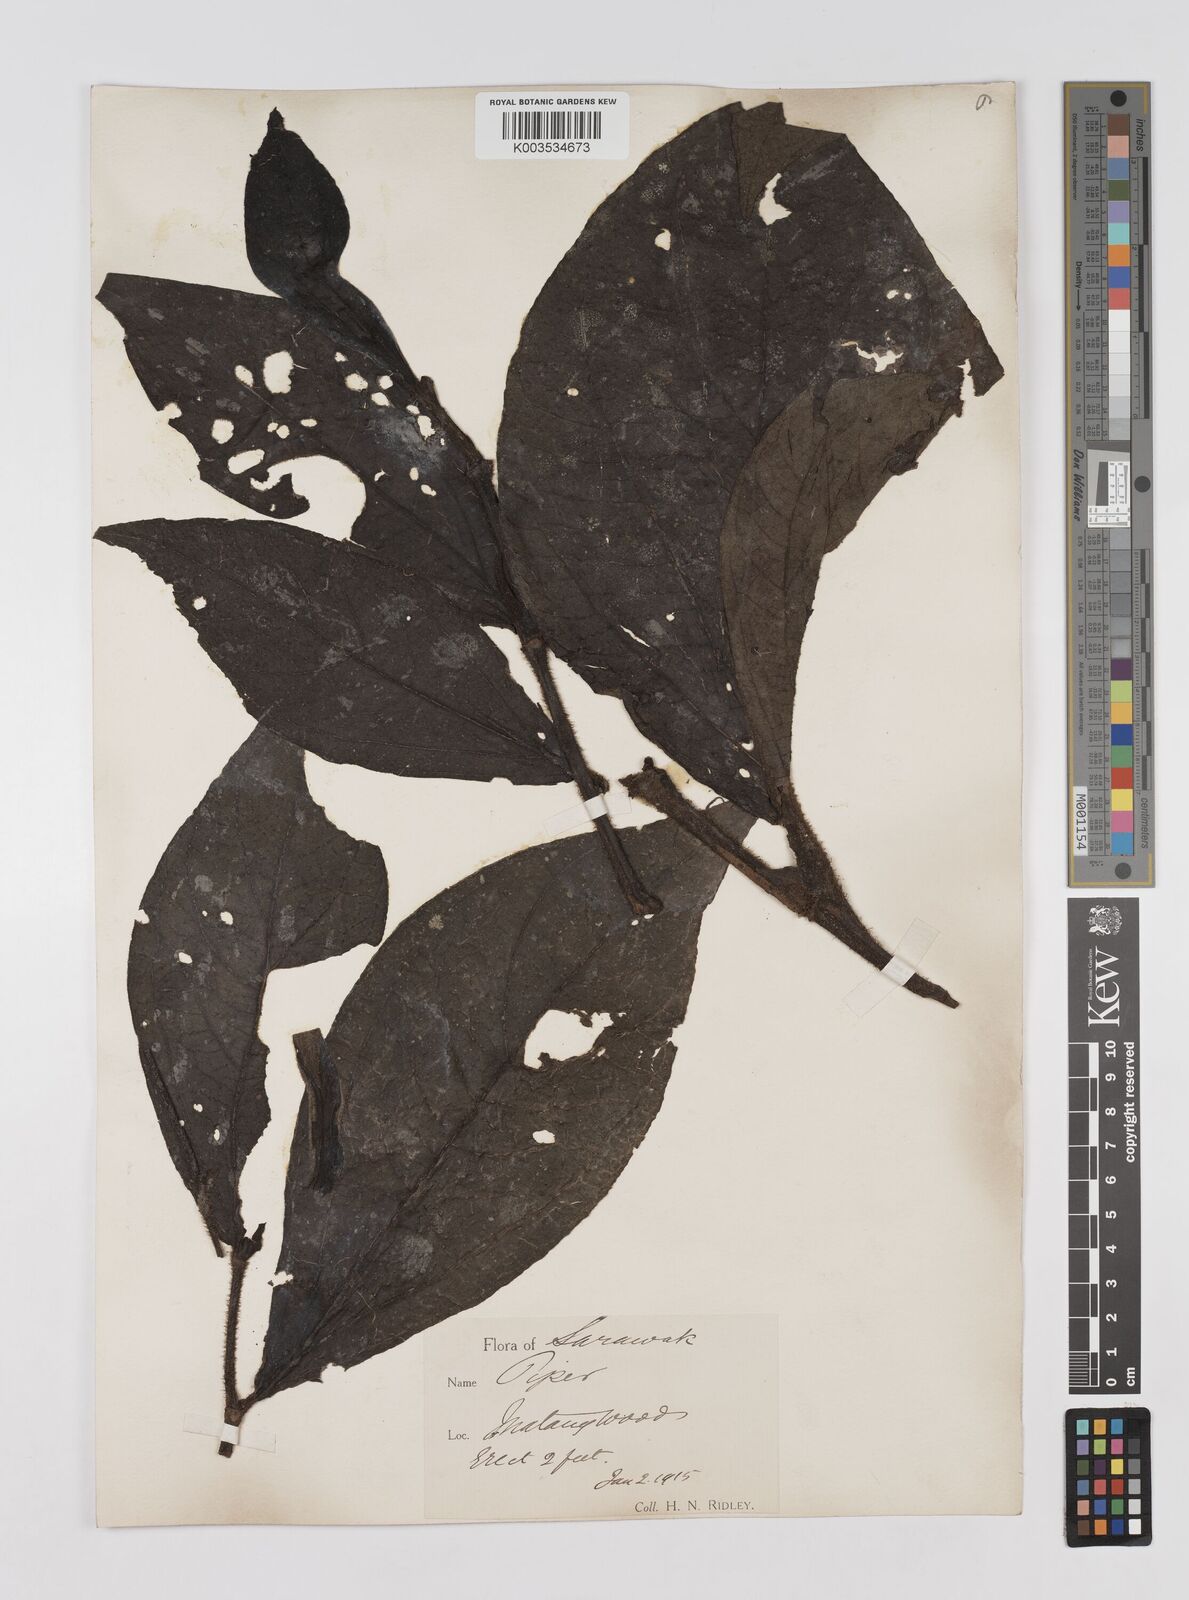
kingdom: Plantae
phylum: Tracheophyta
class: Magnoliopsida
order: Piperales
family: Piperaceae
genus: Piper
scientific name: Piper muricatum
